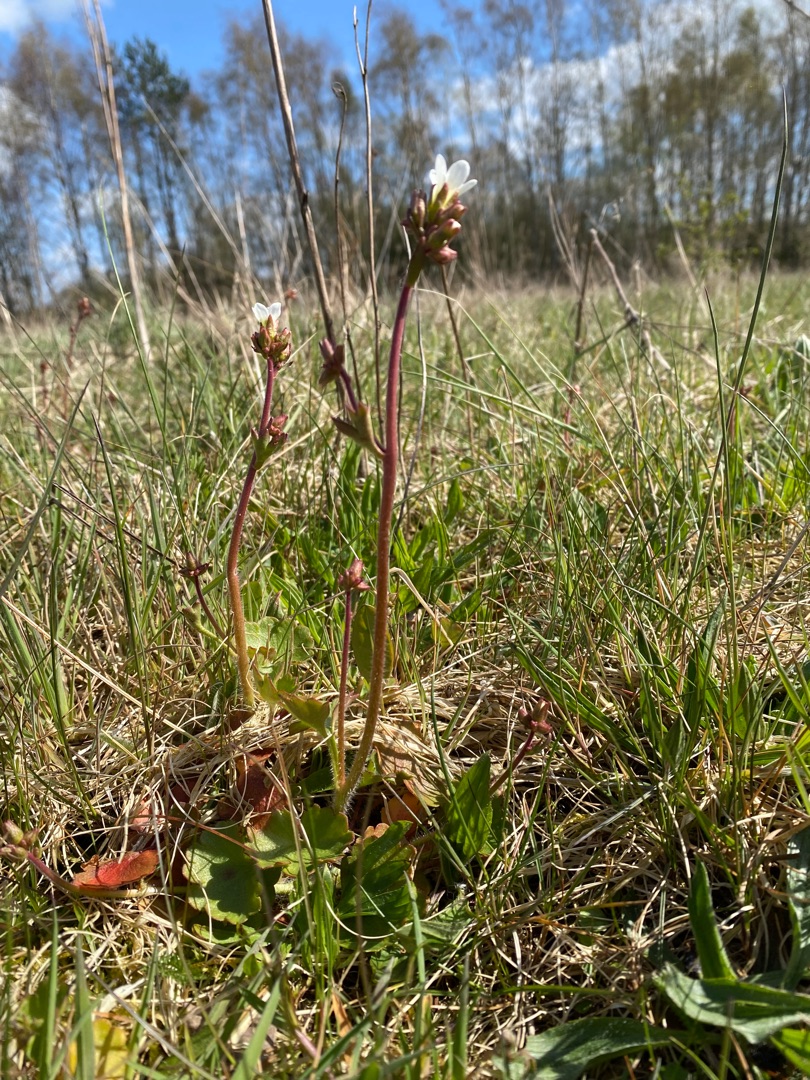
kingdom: Plantae
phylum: Tracheophyta
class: Magnoliopsida
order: Saxifragales
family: Saxifragaceae
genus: Saxifraga
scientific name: Saxifraga granulata
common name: Kornet stenbræk
